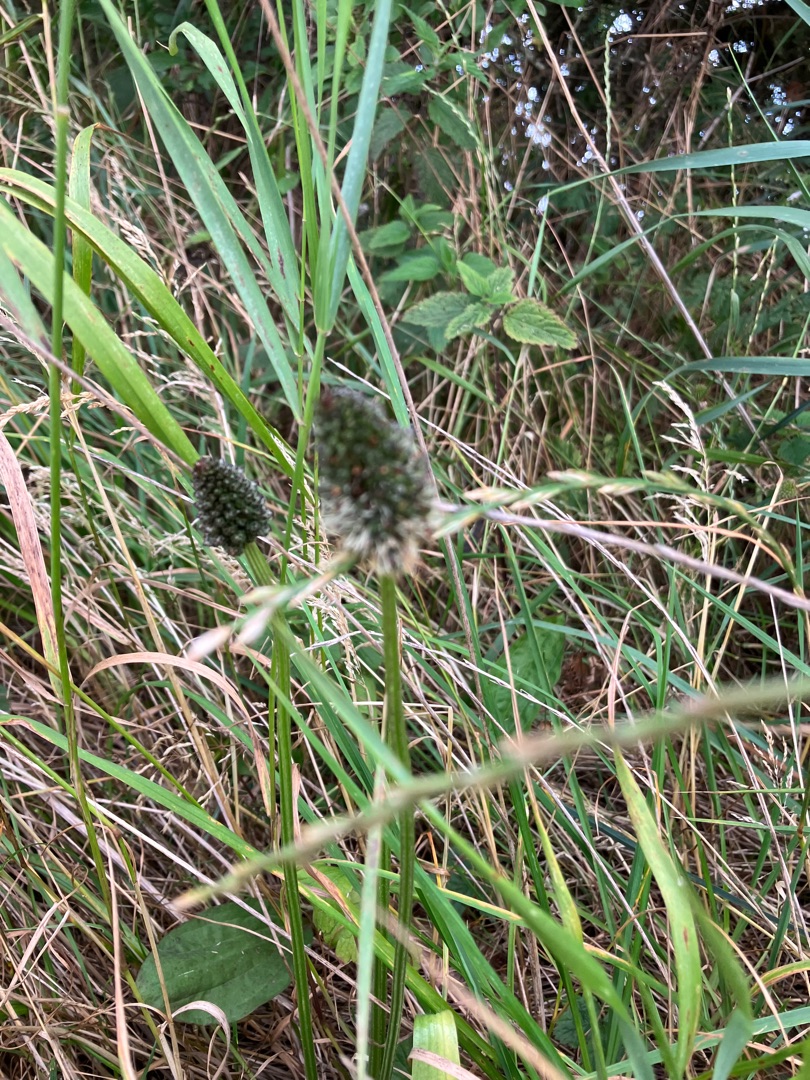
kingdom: Plantae
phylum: Tracheophyta
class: Magnoliopsida
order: Lamiales
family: Plantaginaceae
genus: Plantago
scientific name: Plantago lanceolata
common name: Lancet-vejbred
